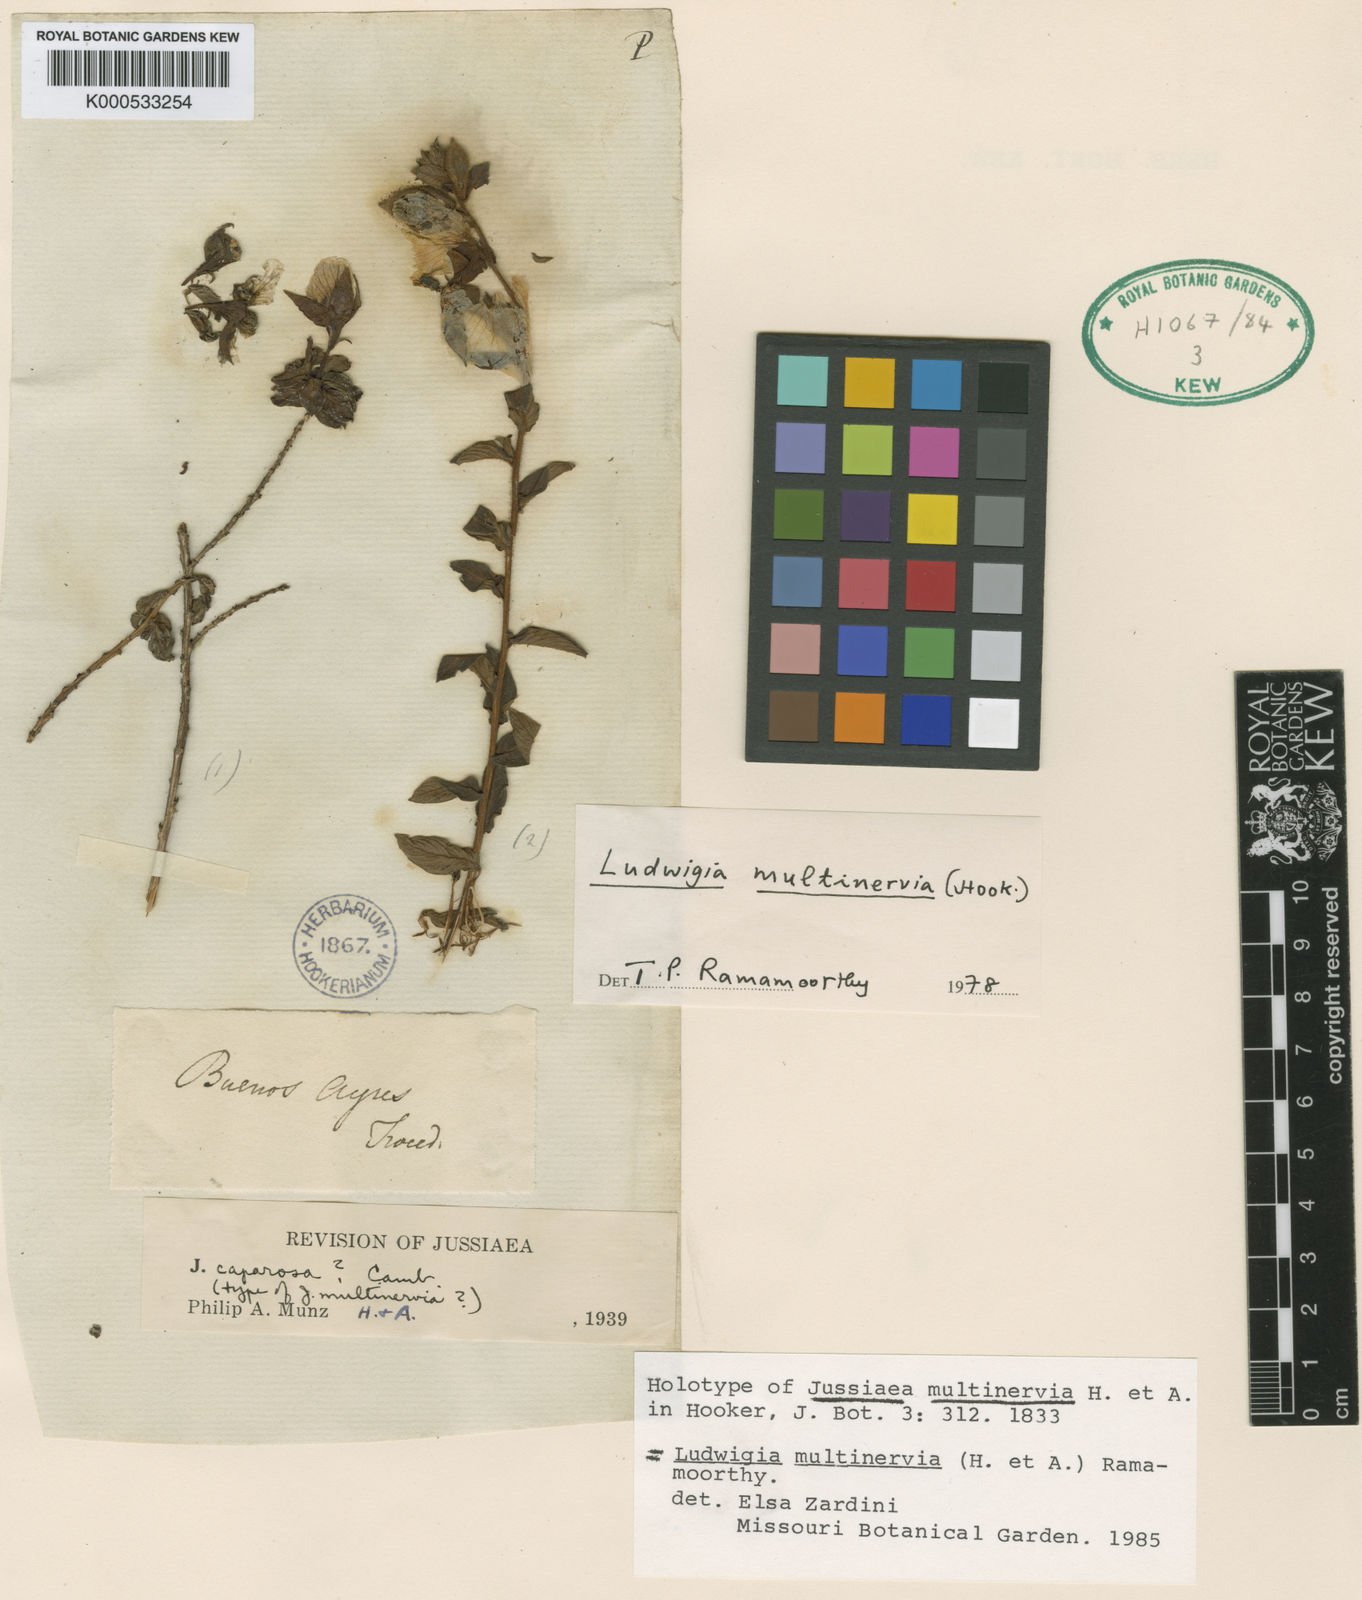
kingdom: Plantae
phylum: Tracheophyta
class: Magnoliopsida
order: Myrtales
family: Onagraceae
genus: Ludwigia
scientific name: Ludwigia multinervia
